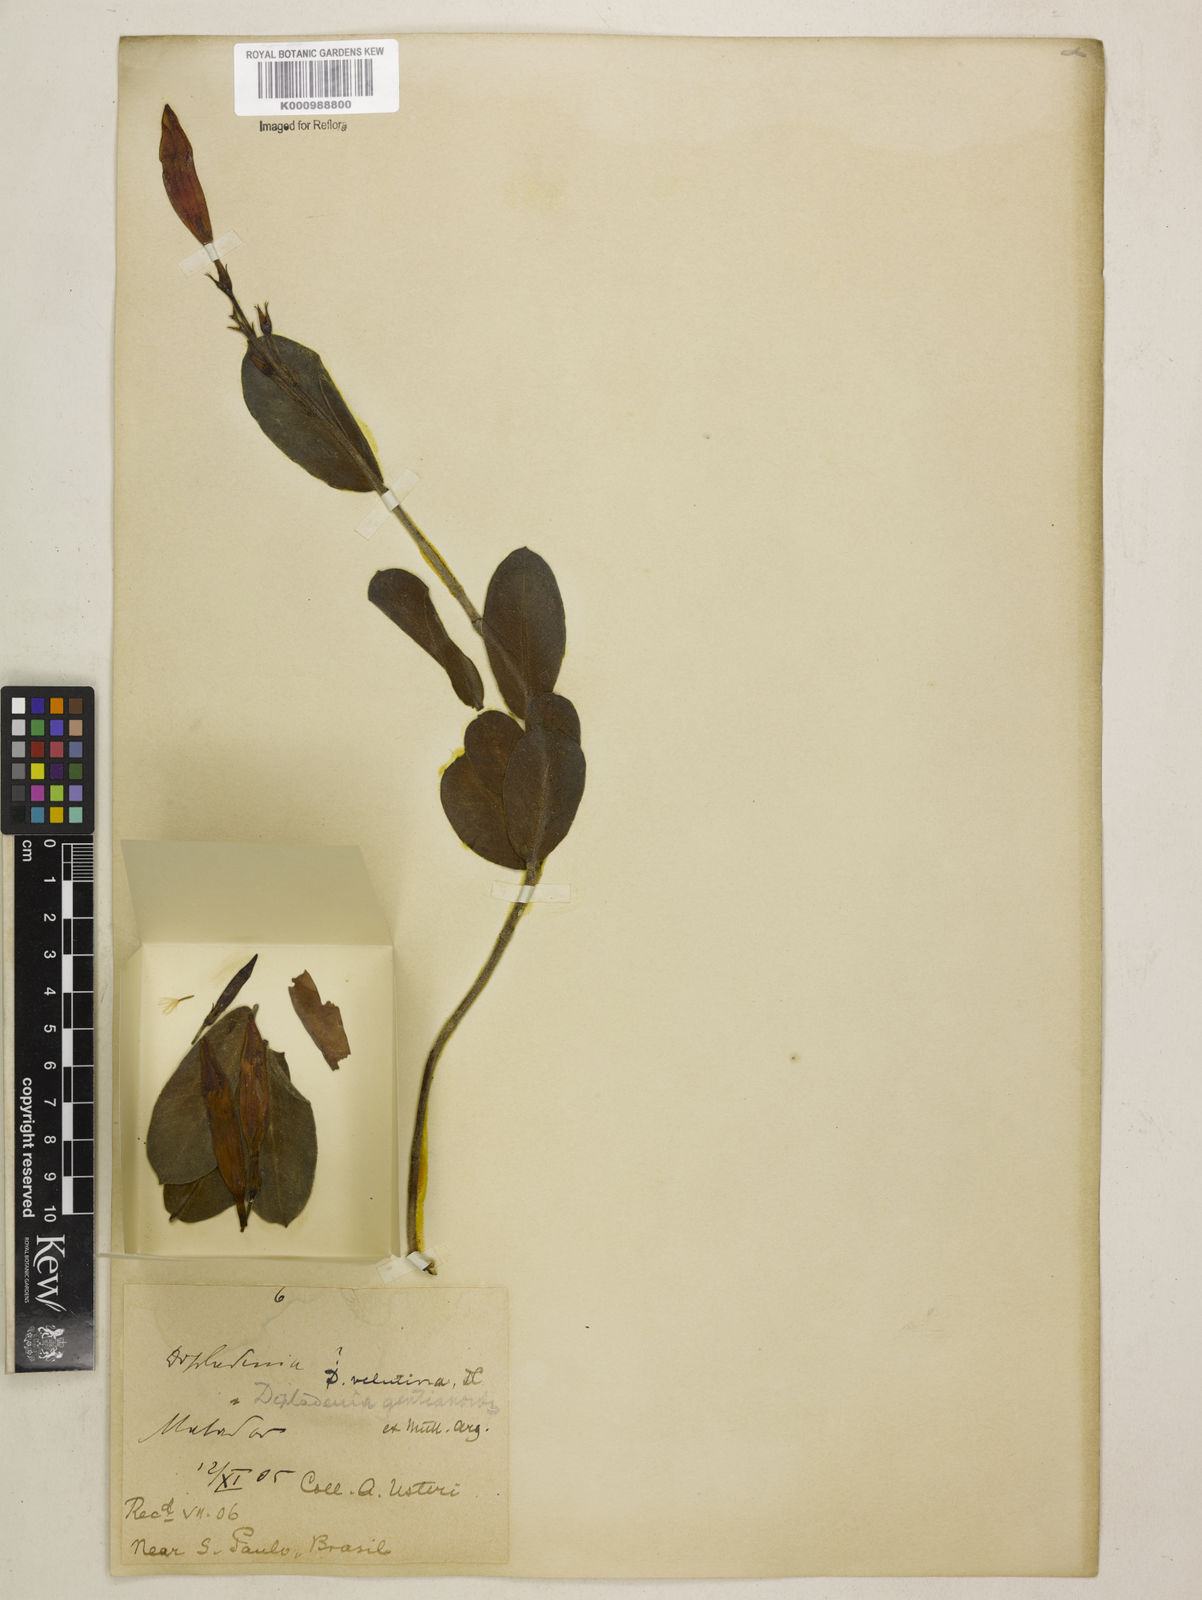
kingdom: Plantae
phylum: Tracheophyta
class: Magnoliopsida
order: Gentianales
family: Apocynaceae
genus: Mandevilla
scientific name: Mandevilla pohliana
